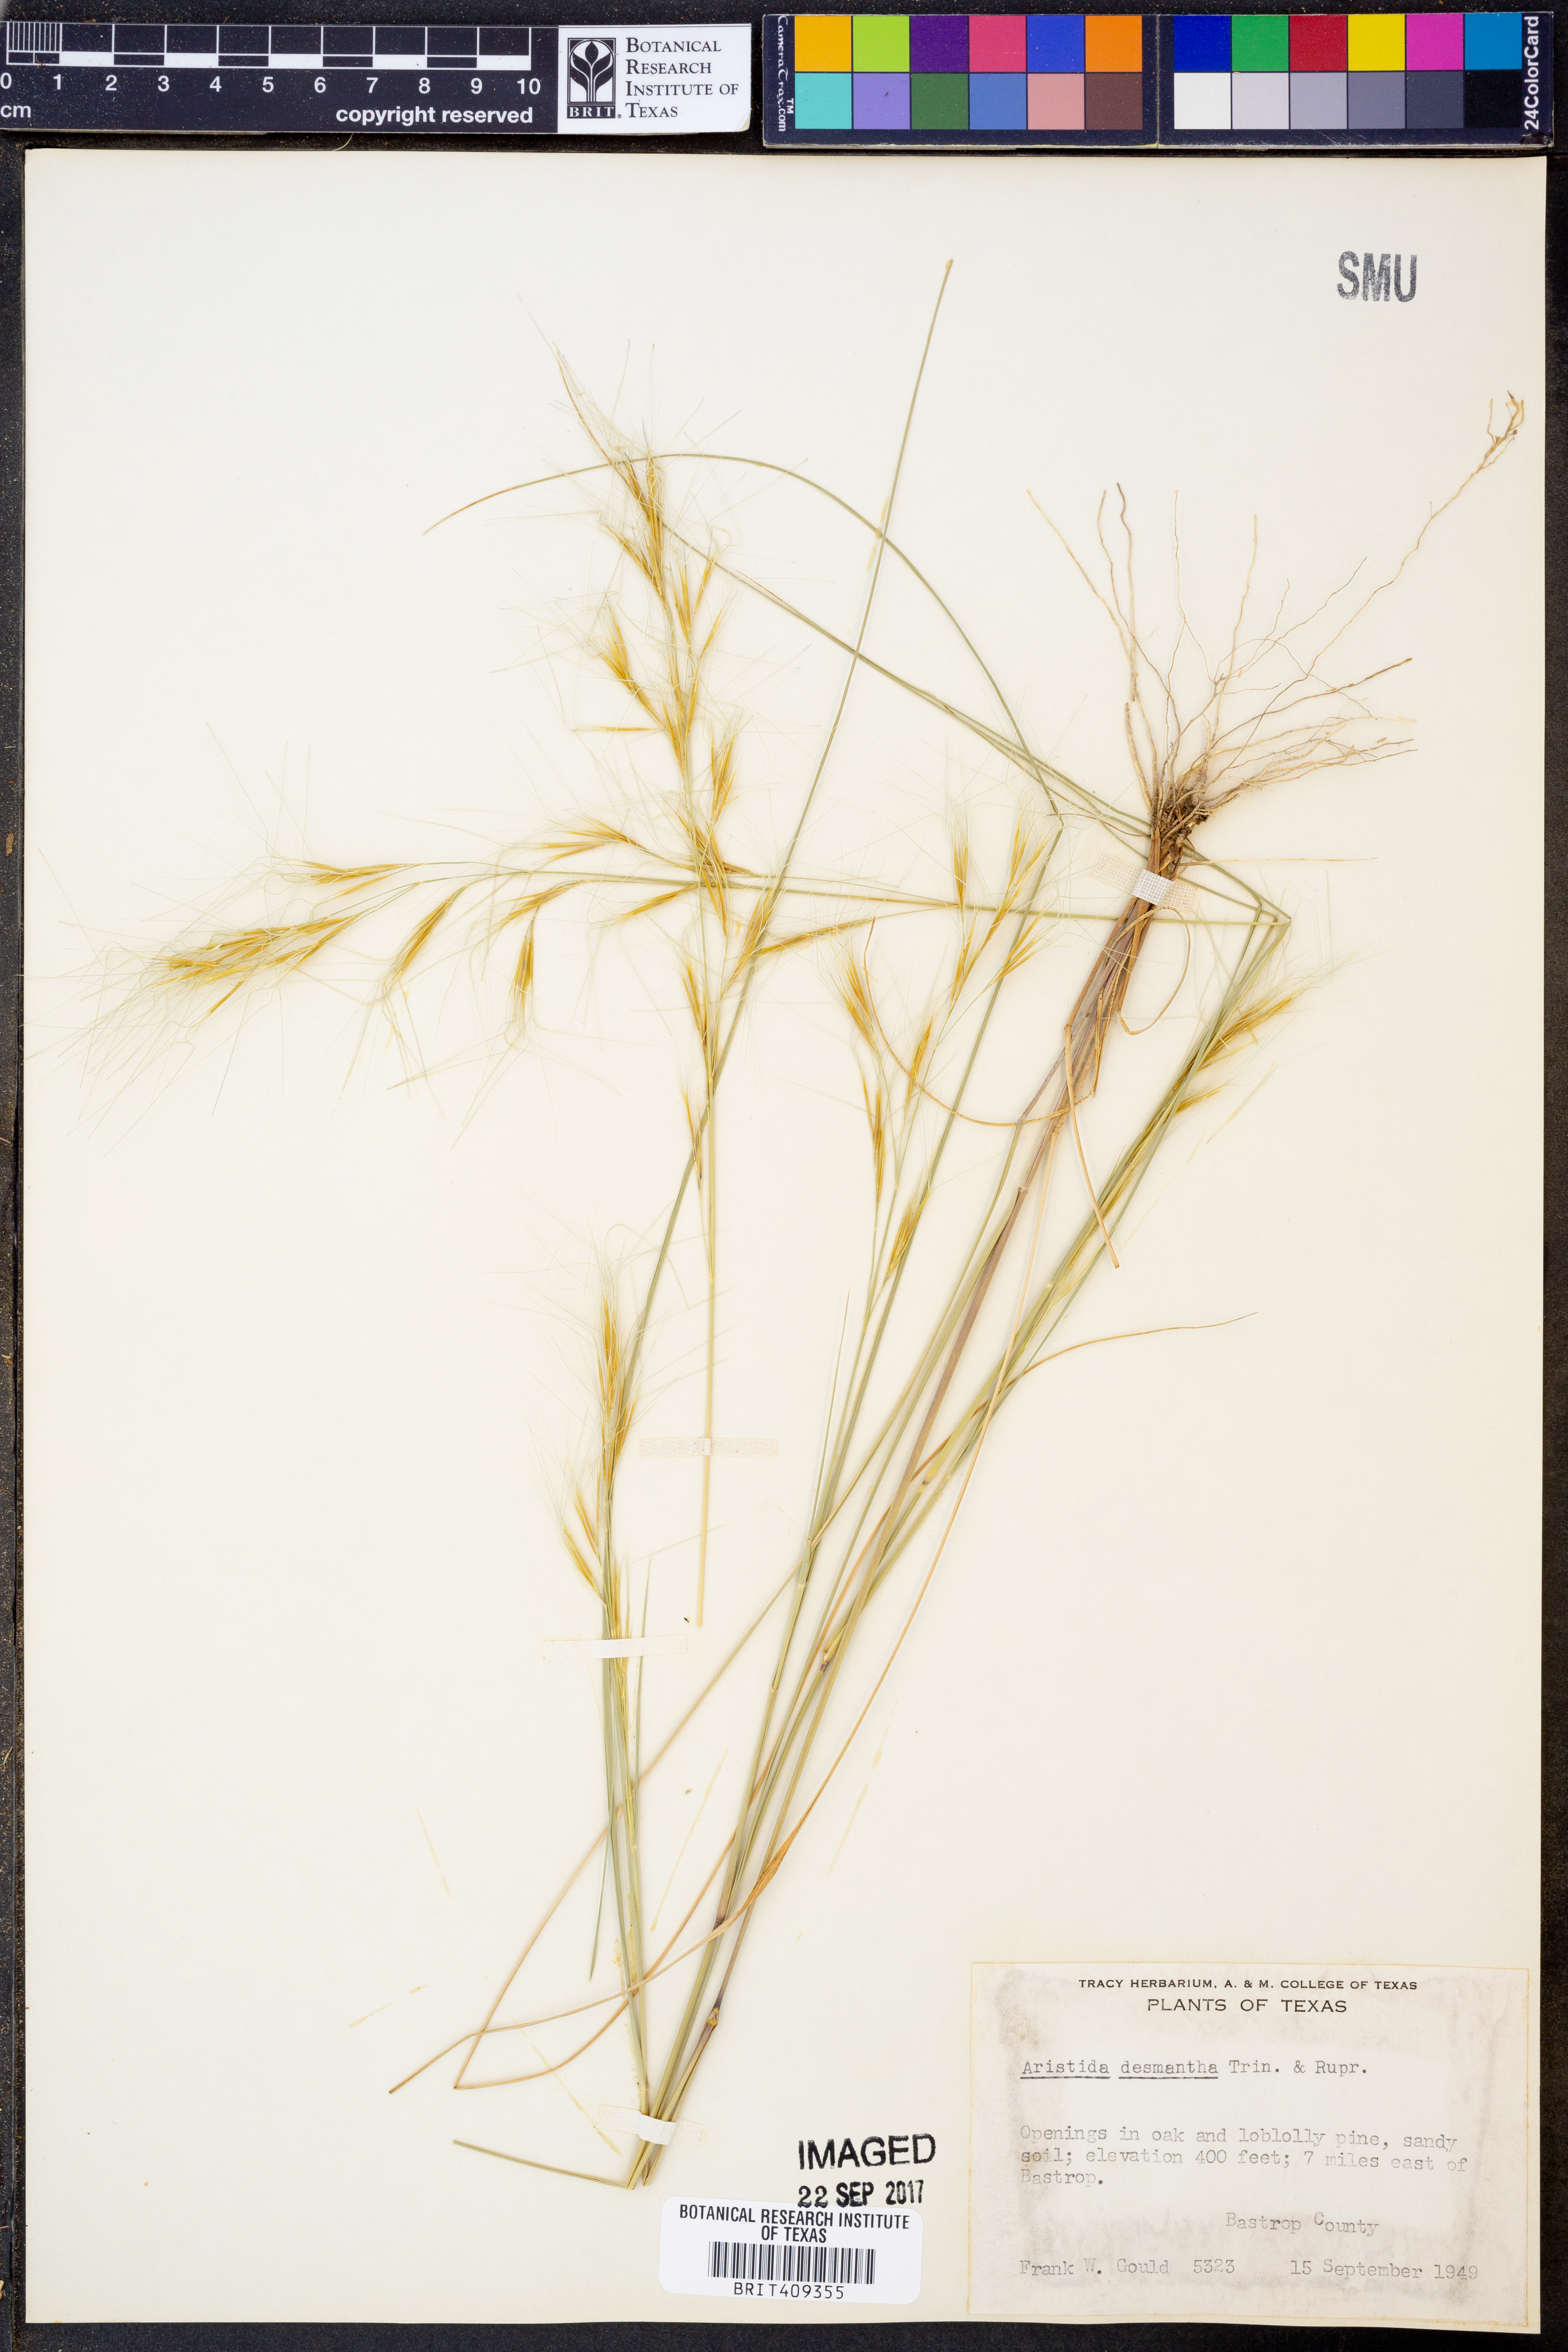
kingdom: Plantae
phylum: Tracheophyta
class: Liliopsida
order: Poales
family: Poaceae
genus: Aristida
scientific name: Aristida desmantha
